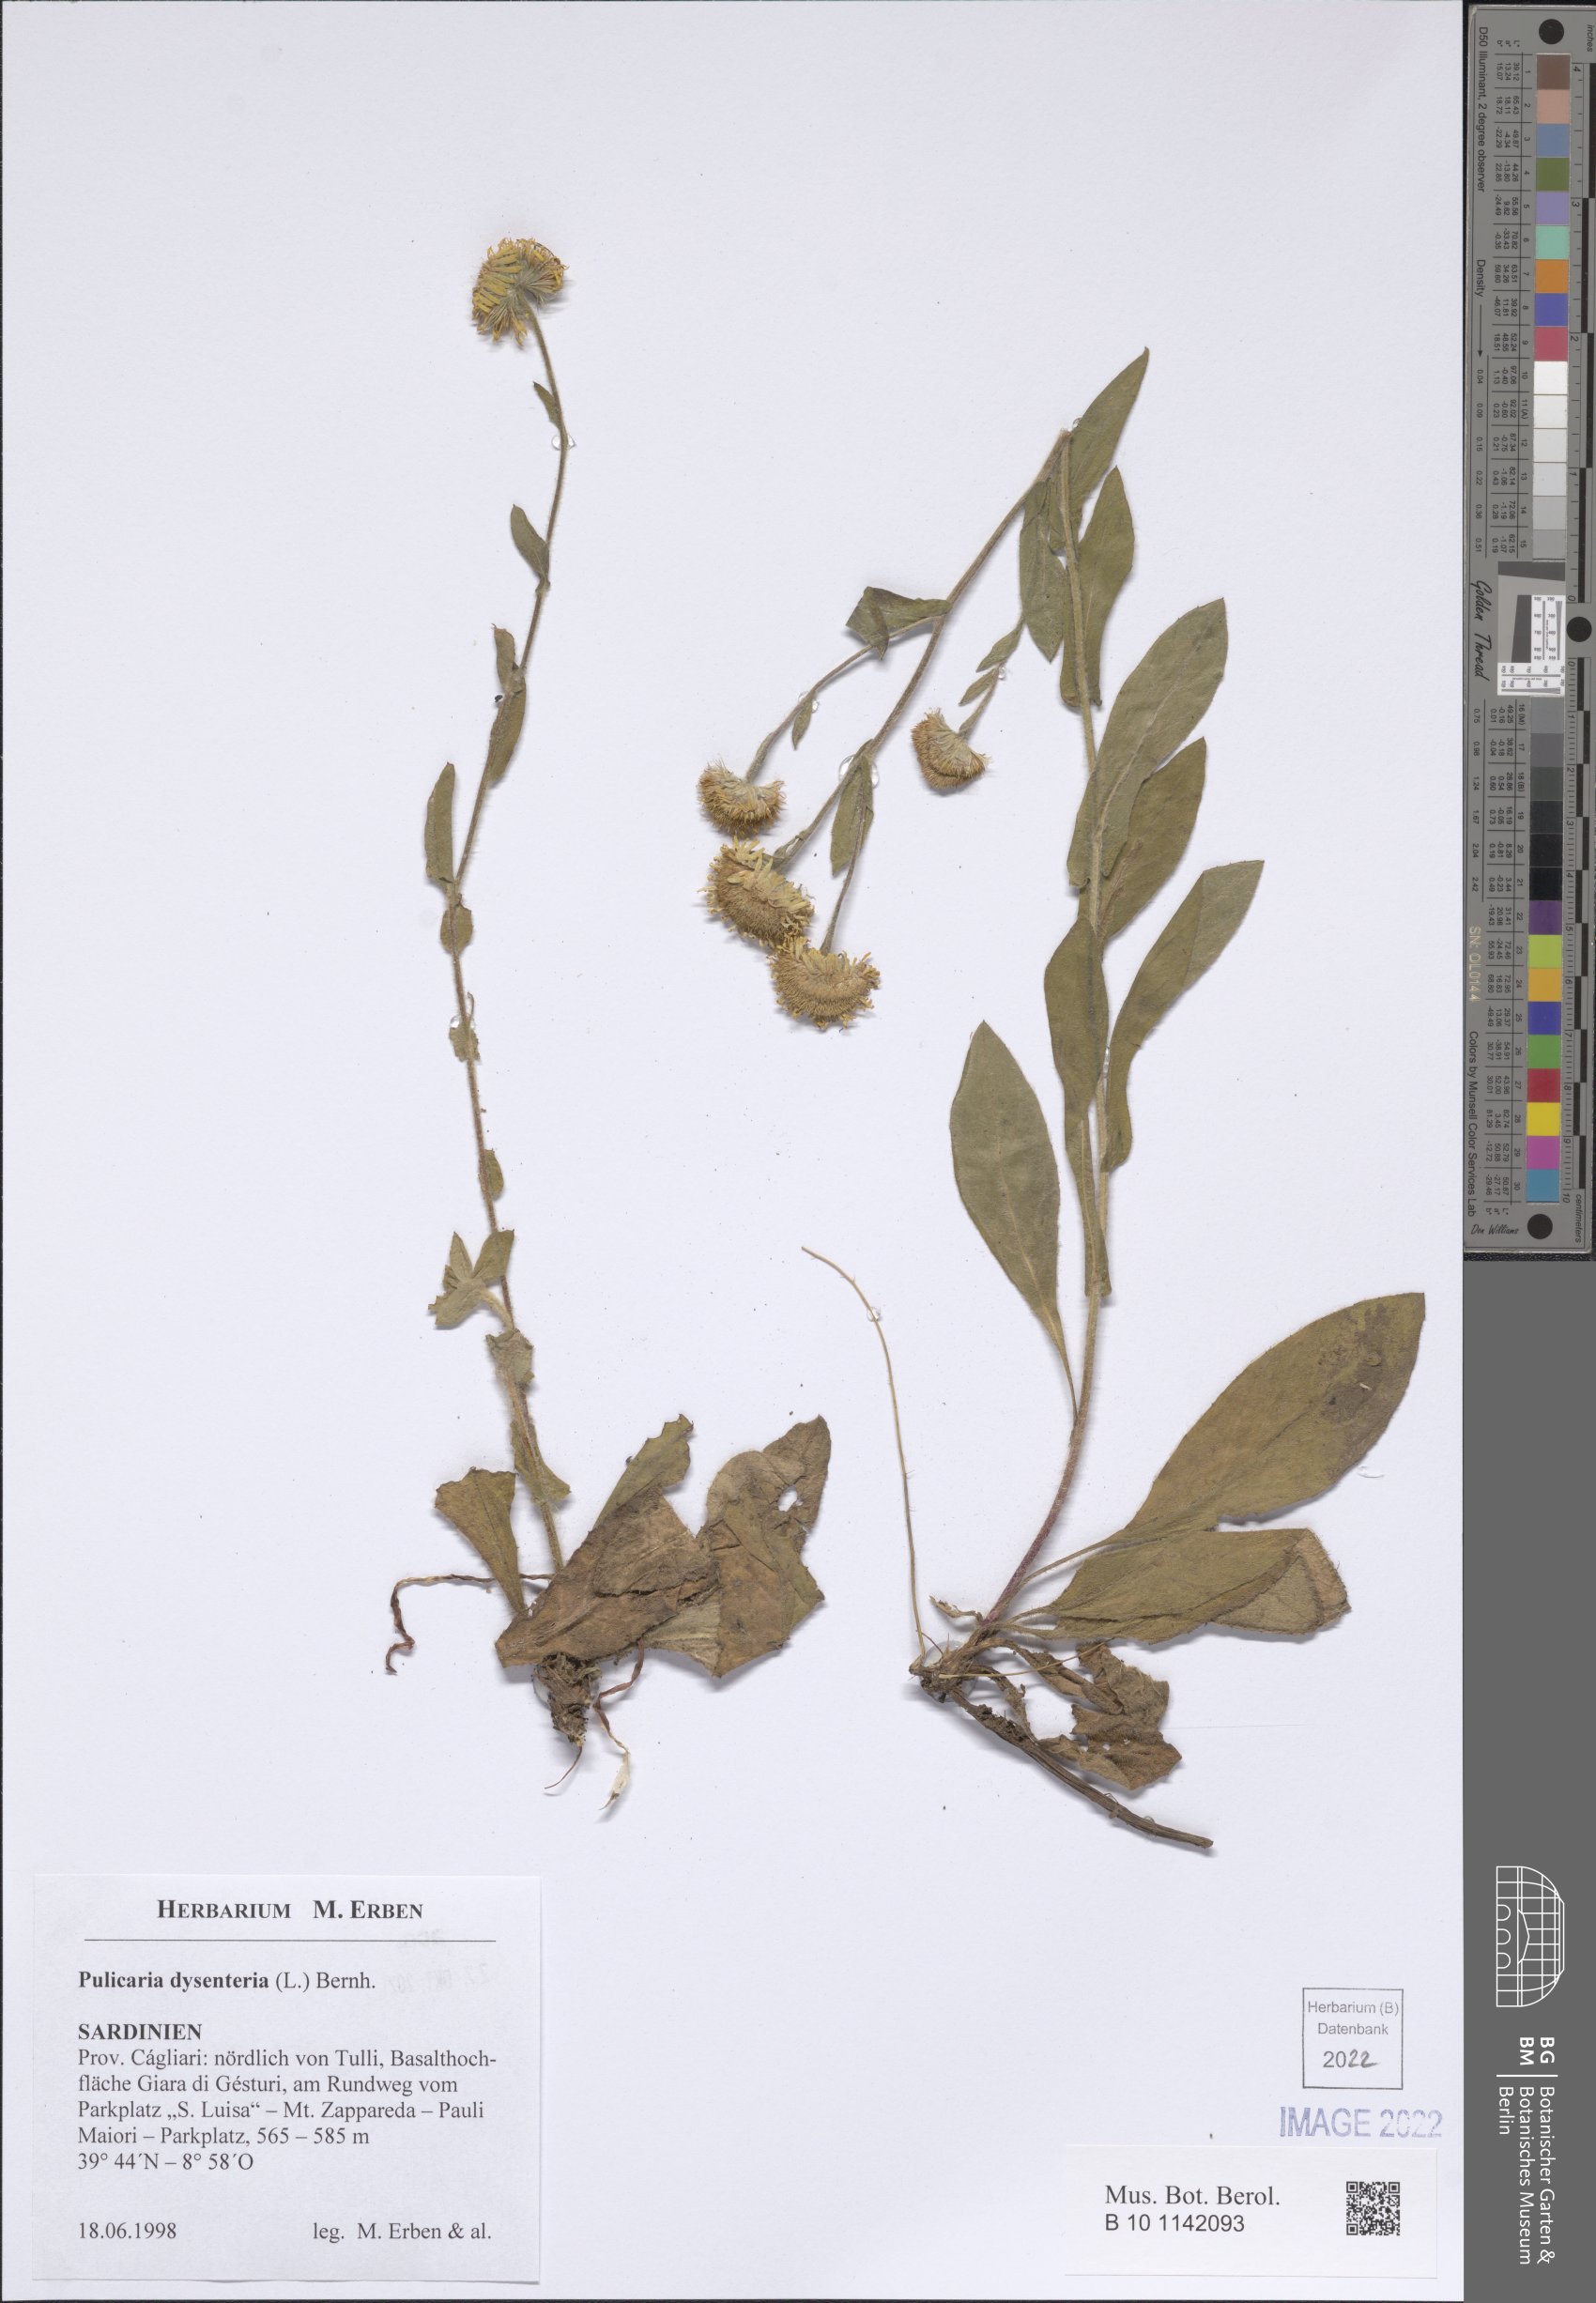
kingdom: Plantae
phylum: Tracheophyta
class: Magnoliopsida
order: Asterales
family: Asteraceae
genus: Pulicaria
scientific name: Pulicaria dysenterica
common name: Common fleabane
